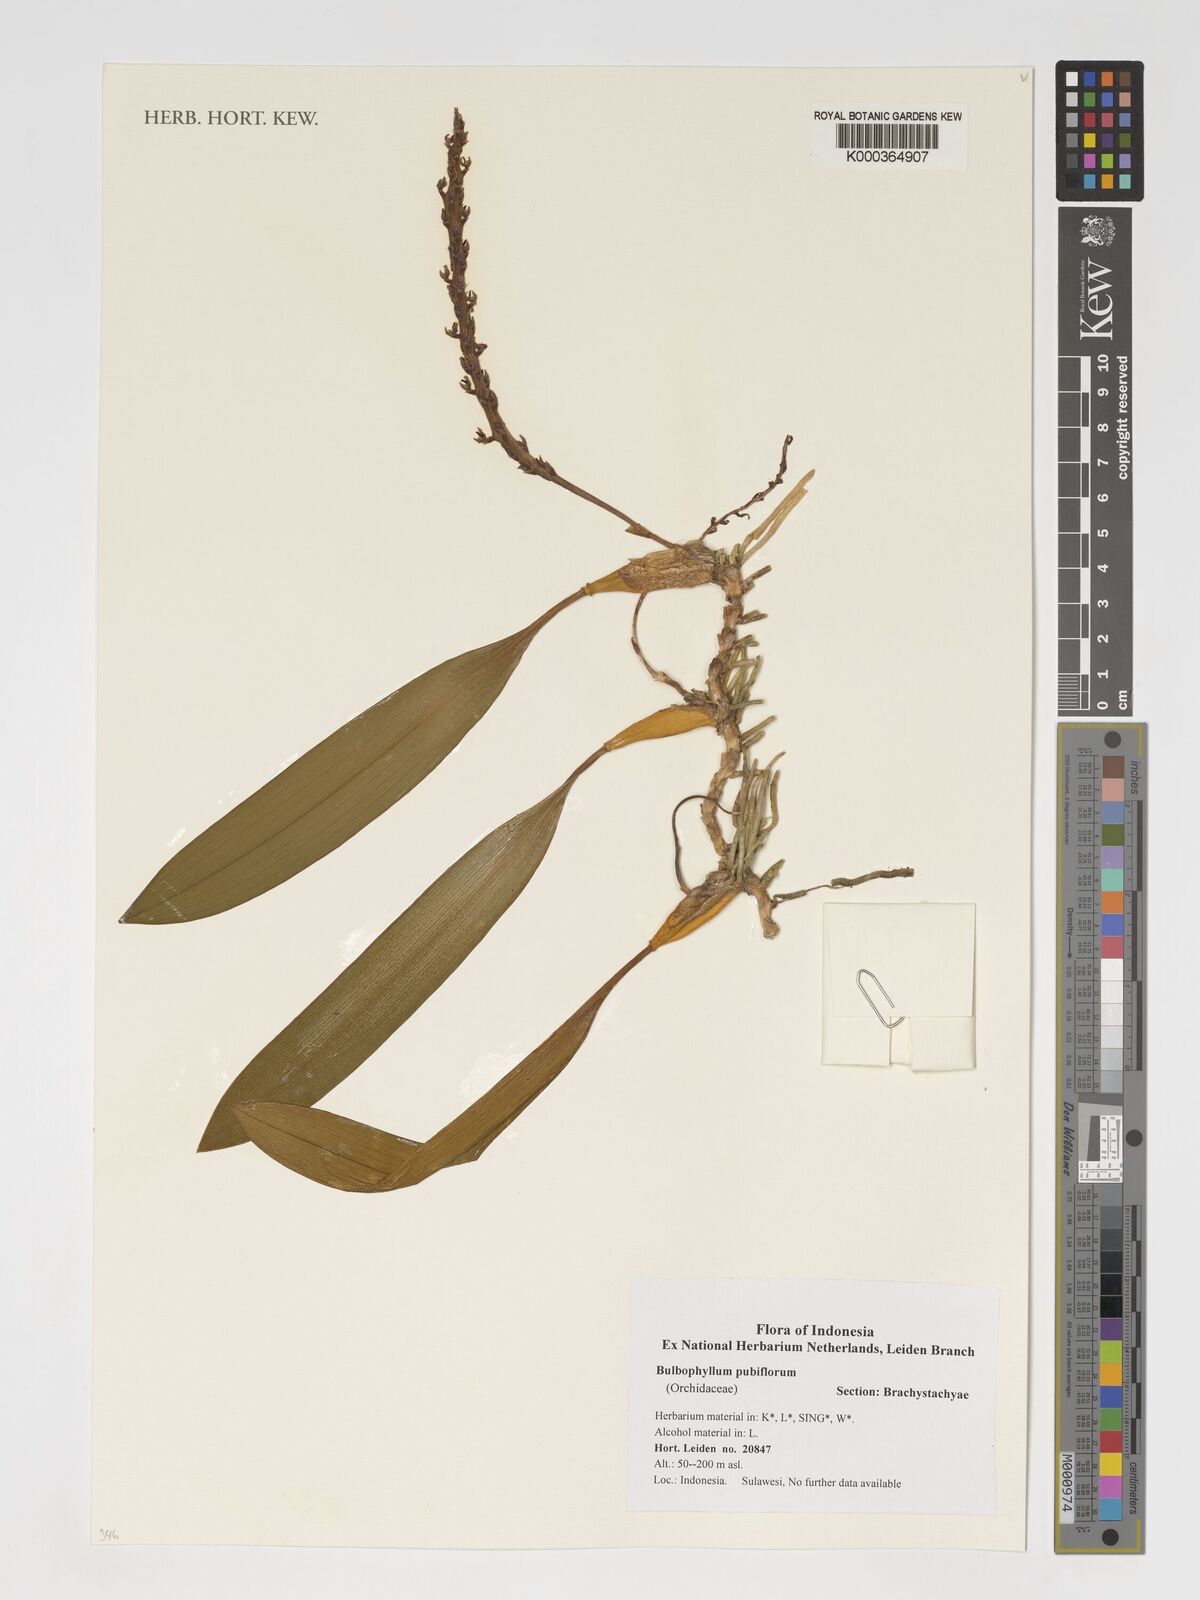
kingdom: Plantae
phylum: Tracheophyta
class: Liliopsida
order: Asparagales
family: Orchidaceae
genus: Bulbophyllum
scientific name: Bulbophyllum pubiflorum
